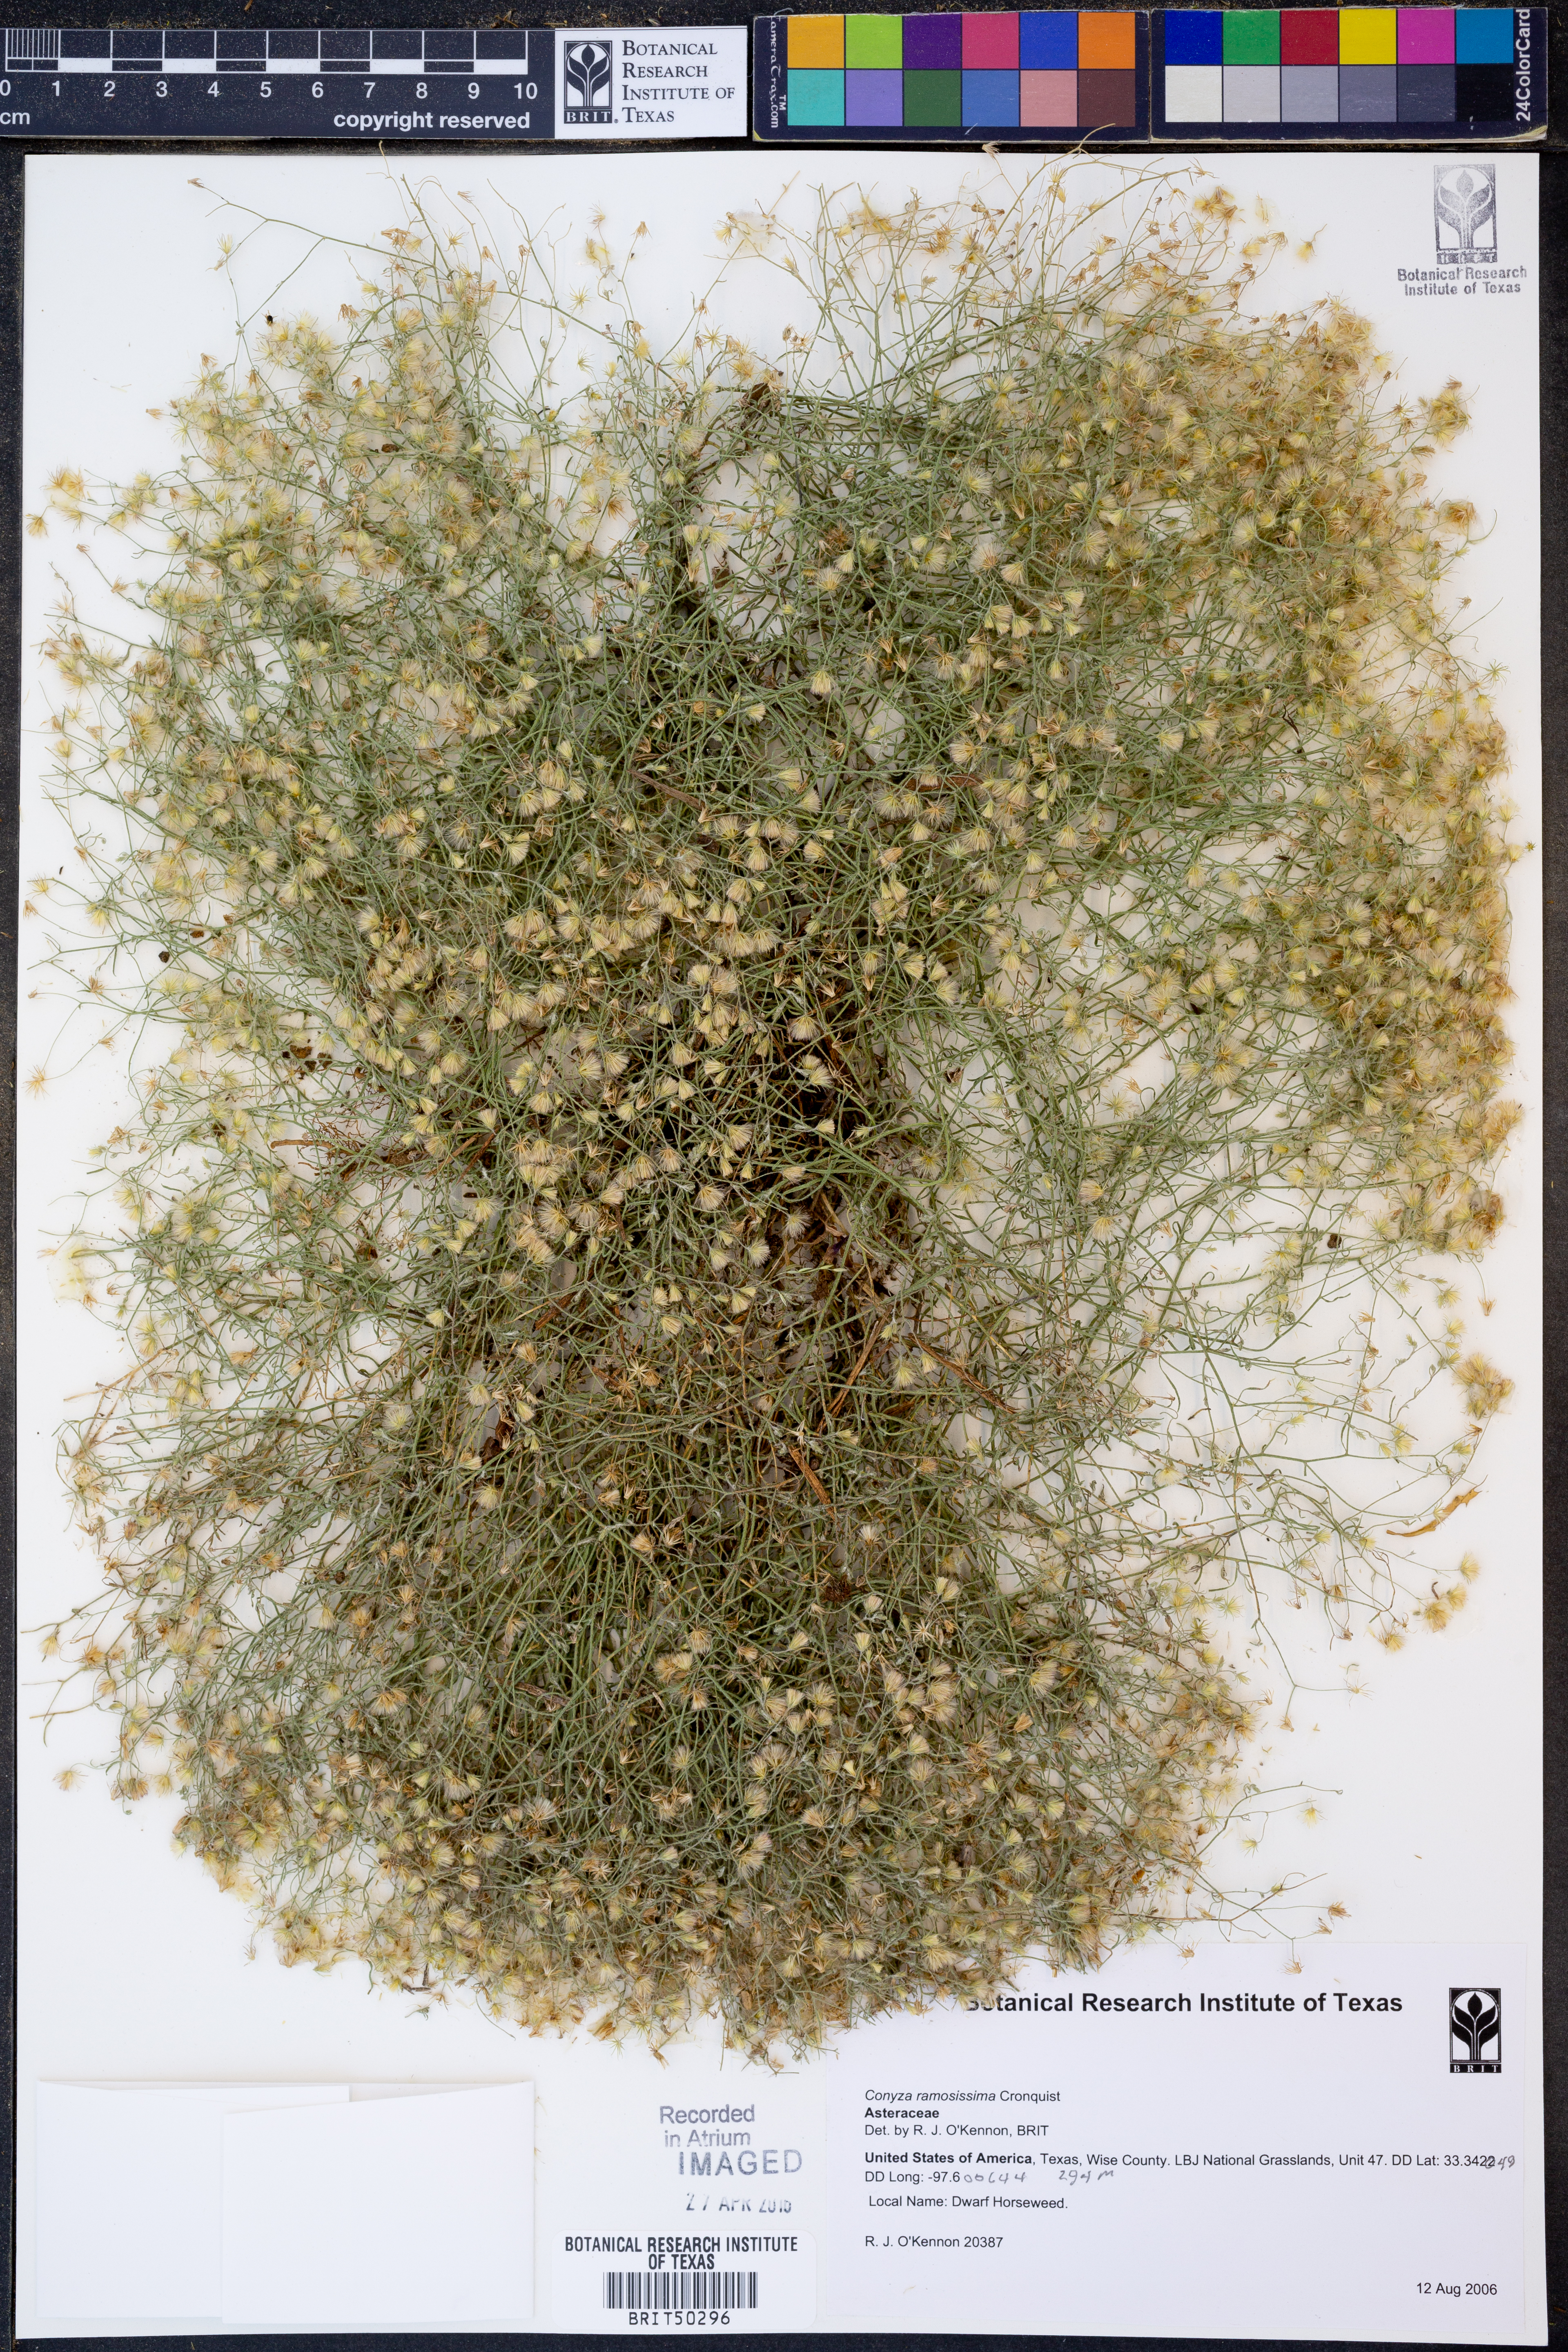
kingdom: Plantae
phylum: Tracheophyta
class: Magnoliopsida
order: Asterales
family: Asteraceae
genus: Erigeron
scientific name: Erigeron divaricatus
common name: Dwarf conyza
